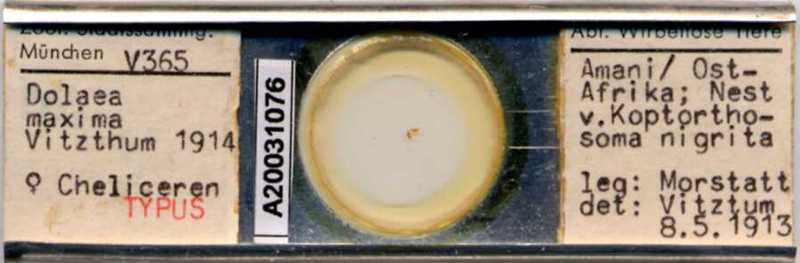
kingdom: Animalia
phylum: Arthropoda
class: Arachnida
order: Mesostigmata
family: Laelapidae
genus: Dinogamasus
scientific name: Dinogamasus
